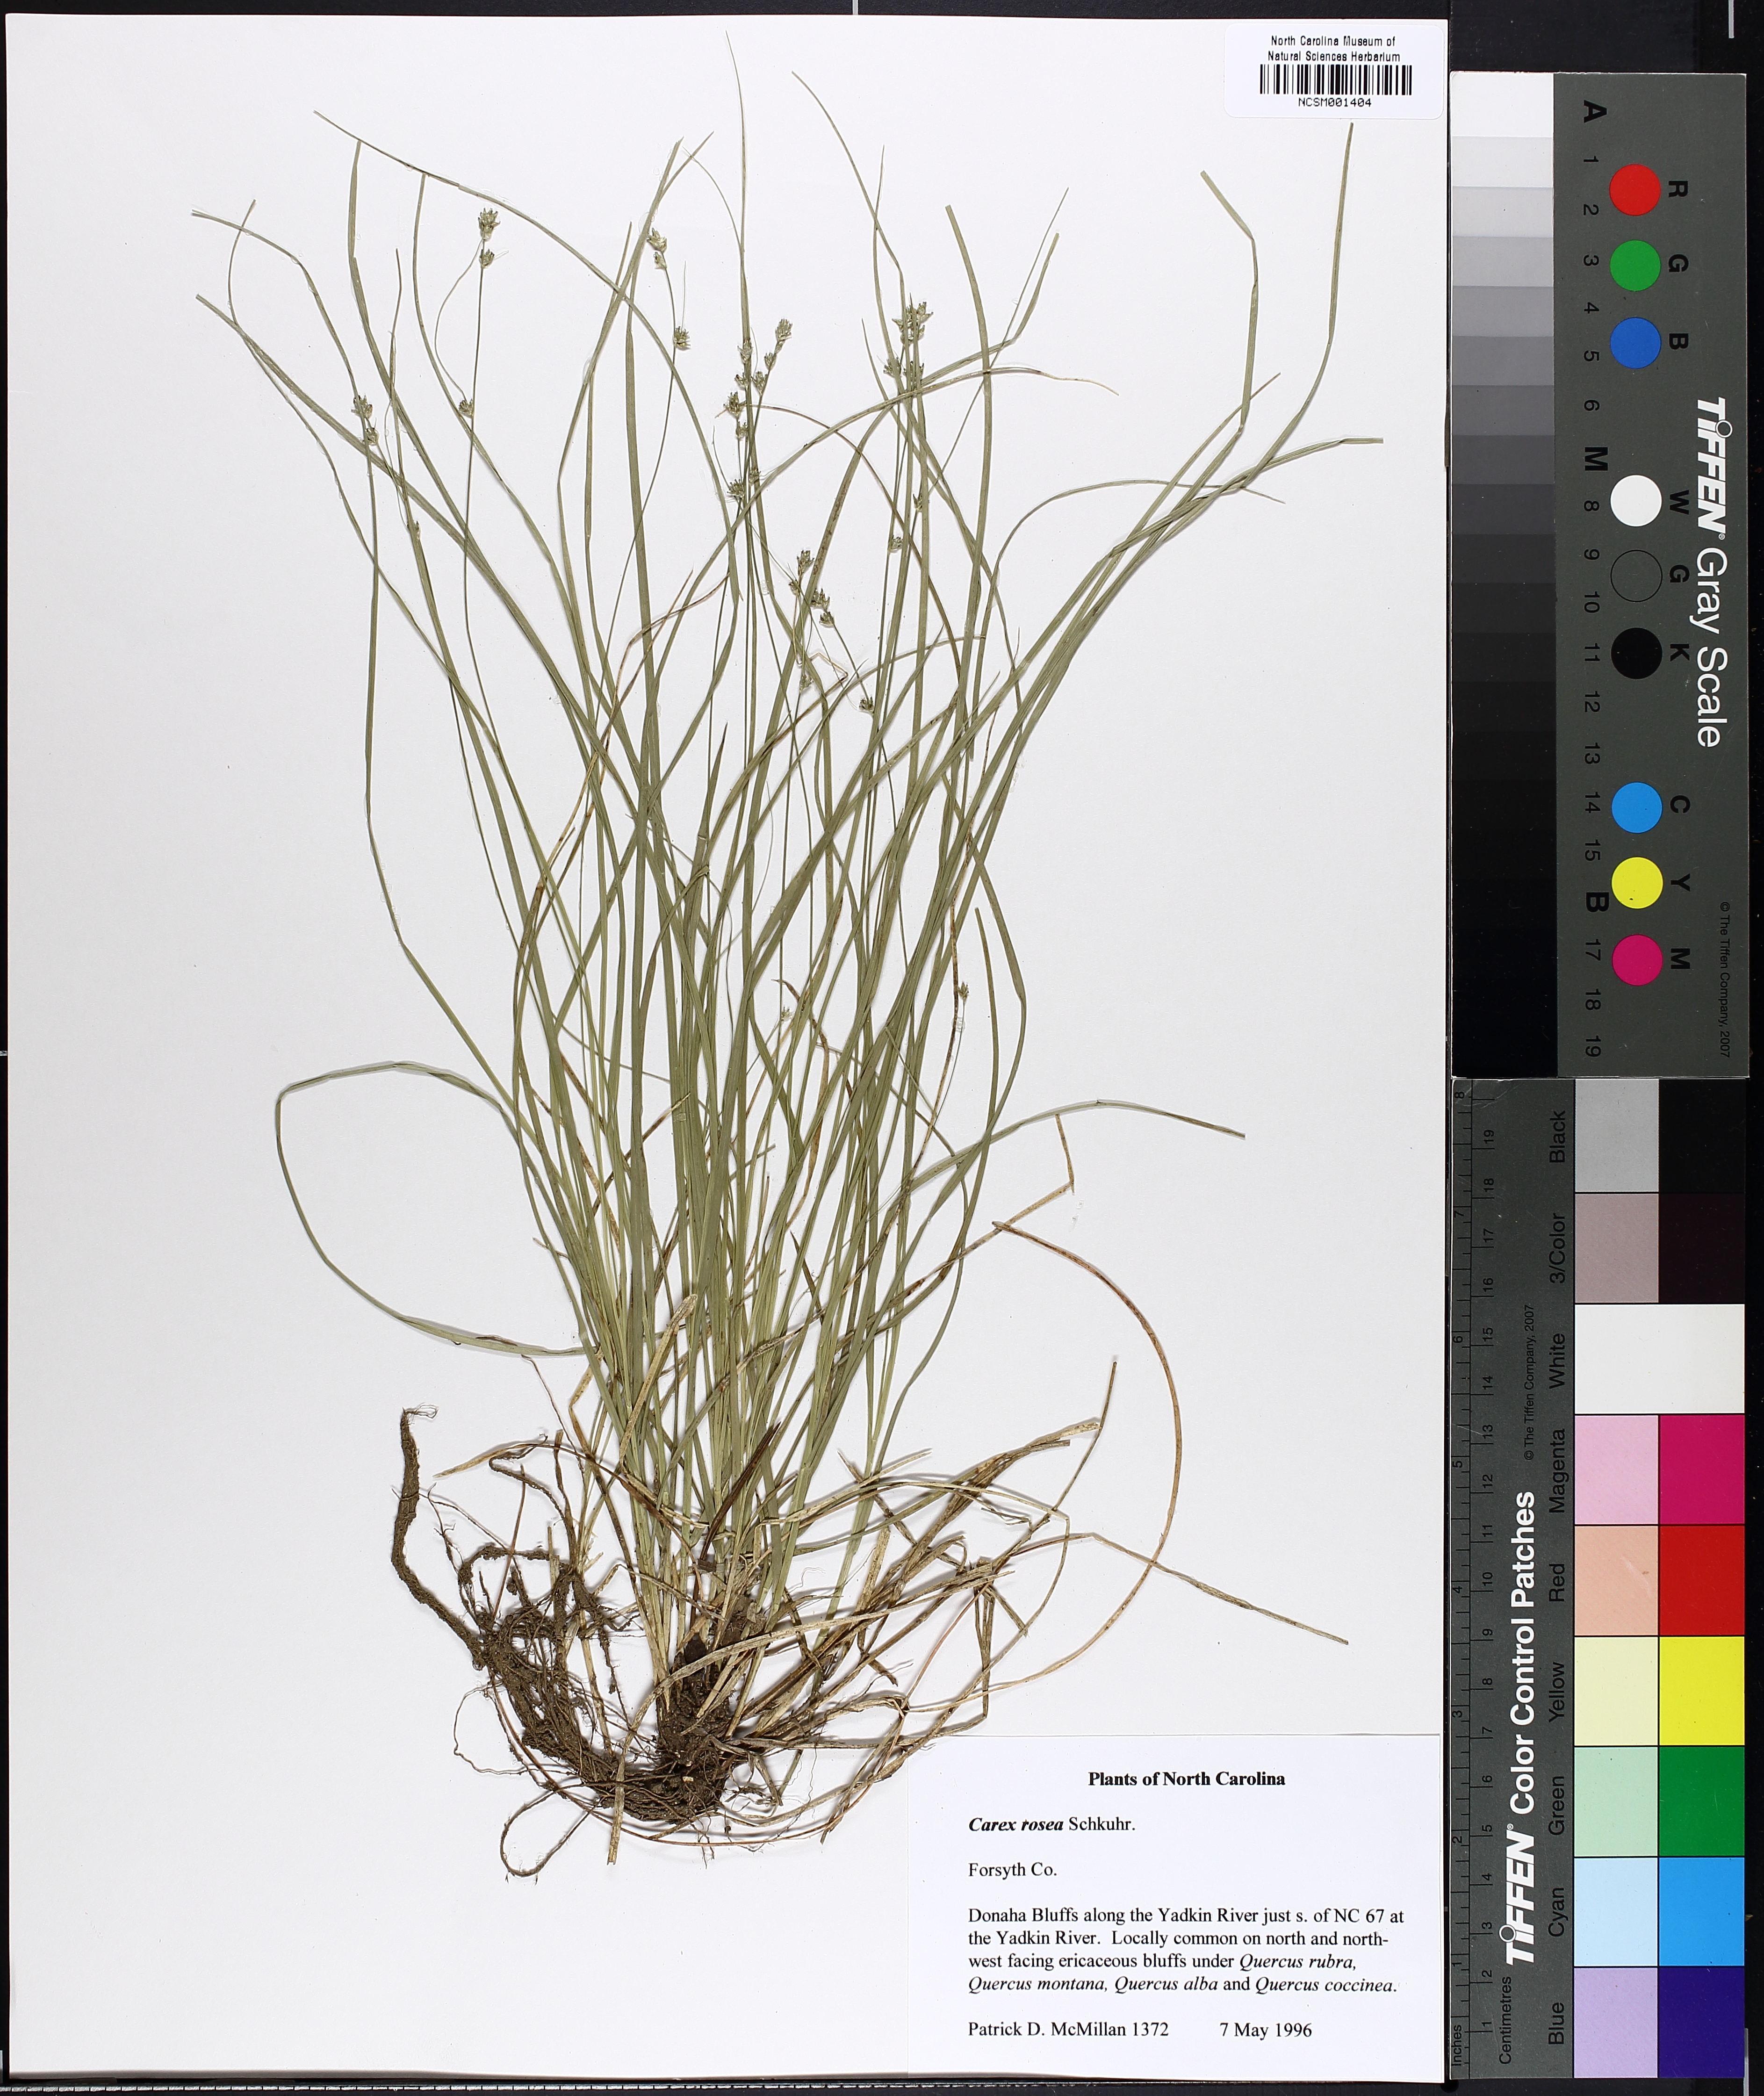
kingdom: Plantae
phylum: Tracheophyta
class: Liliopsida
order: Poales
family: Cyperaceae
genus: Carex
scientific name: Carex rosea
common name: Curly-styled wood sedge
